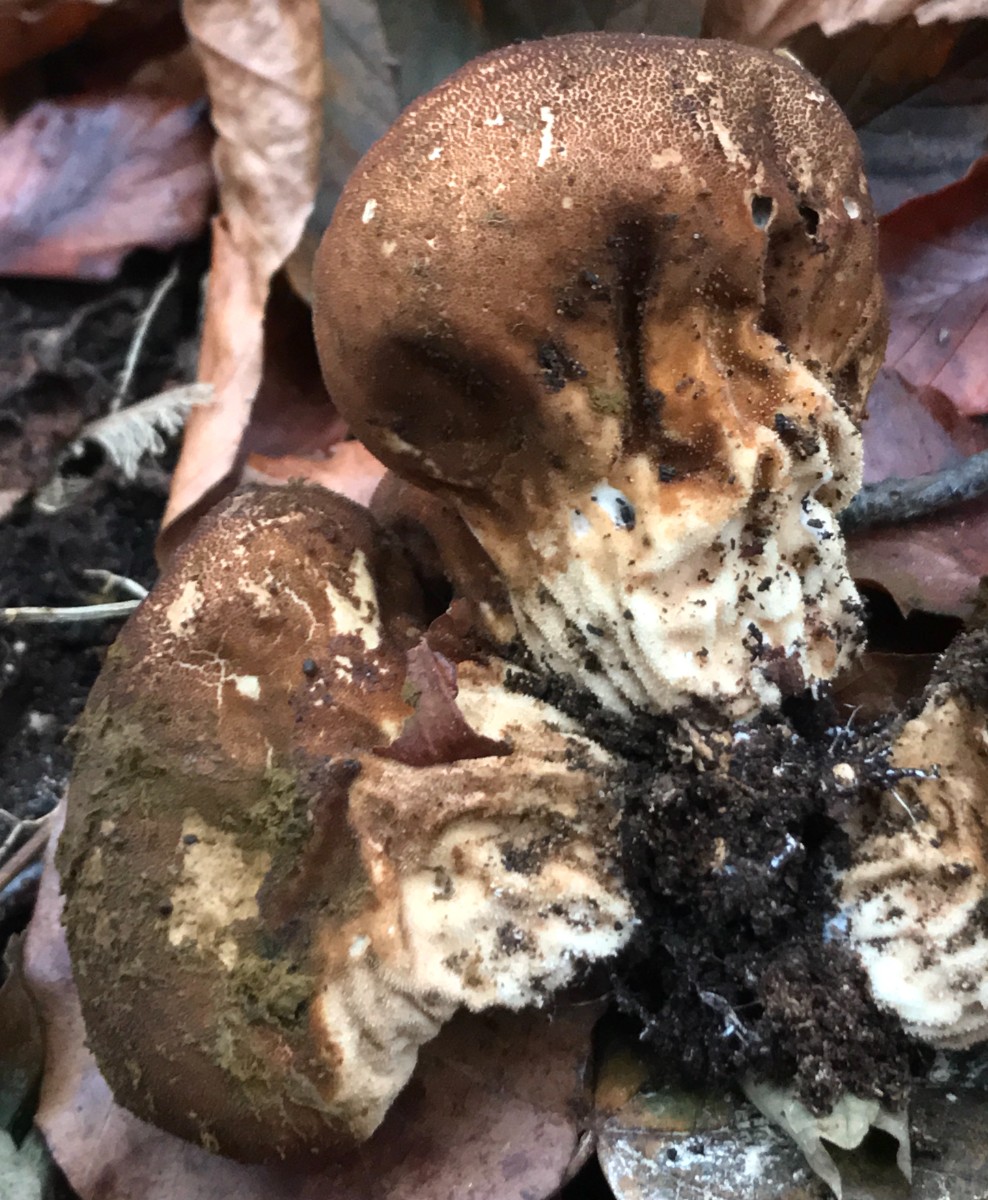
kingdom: Fungi
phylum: Basidiomycota
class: Agaricomycetes
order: Agaricales
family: Lycoperdaceae
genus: Apioperdon
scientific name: Apioperdon pyriforme
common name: pære-støvbold
